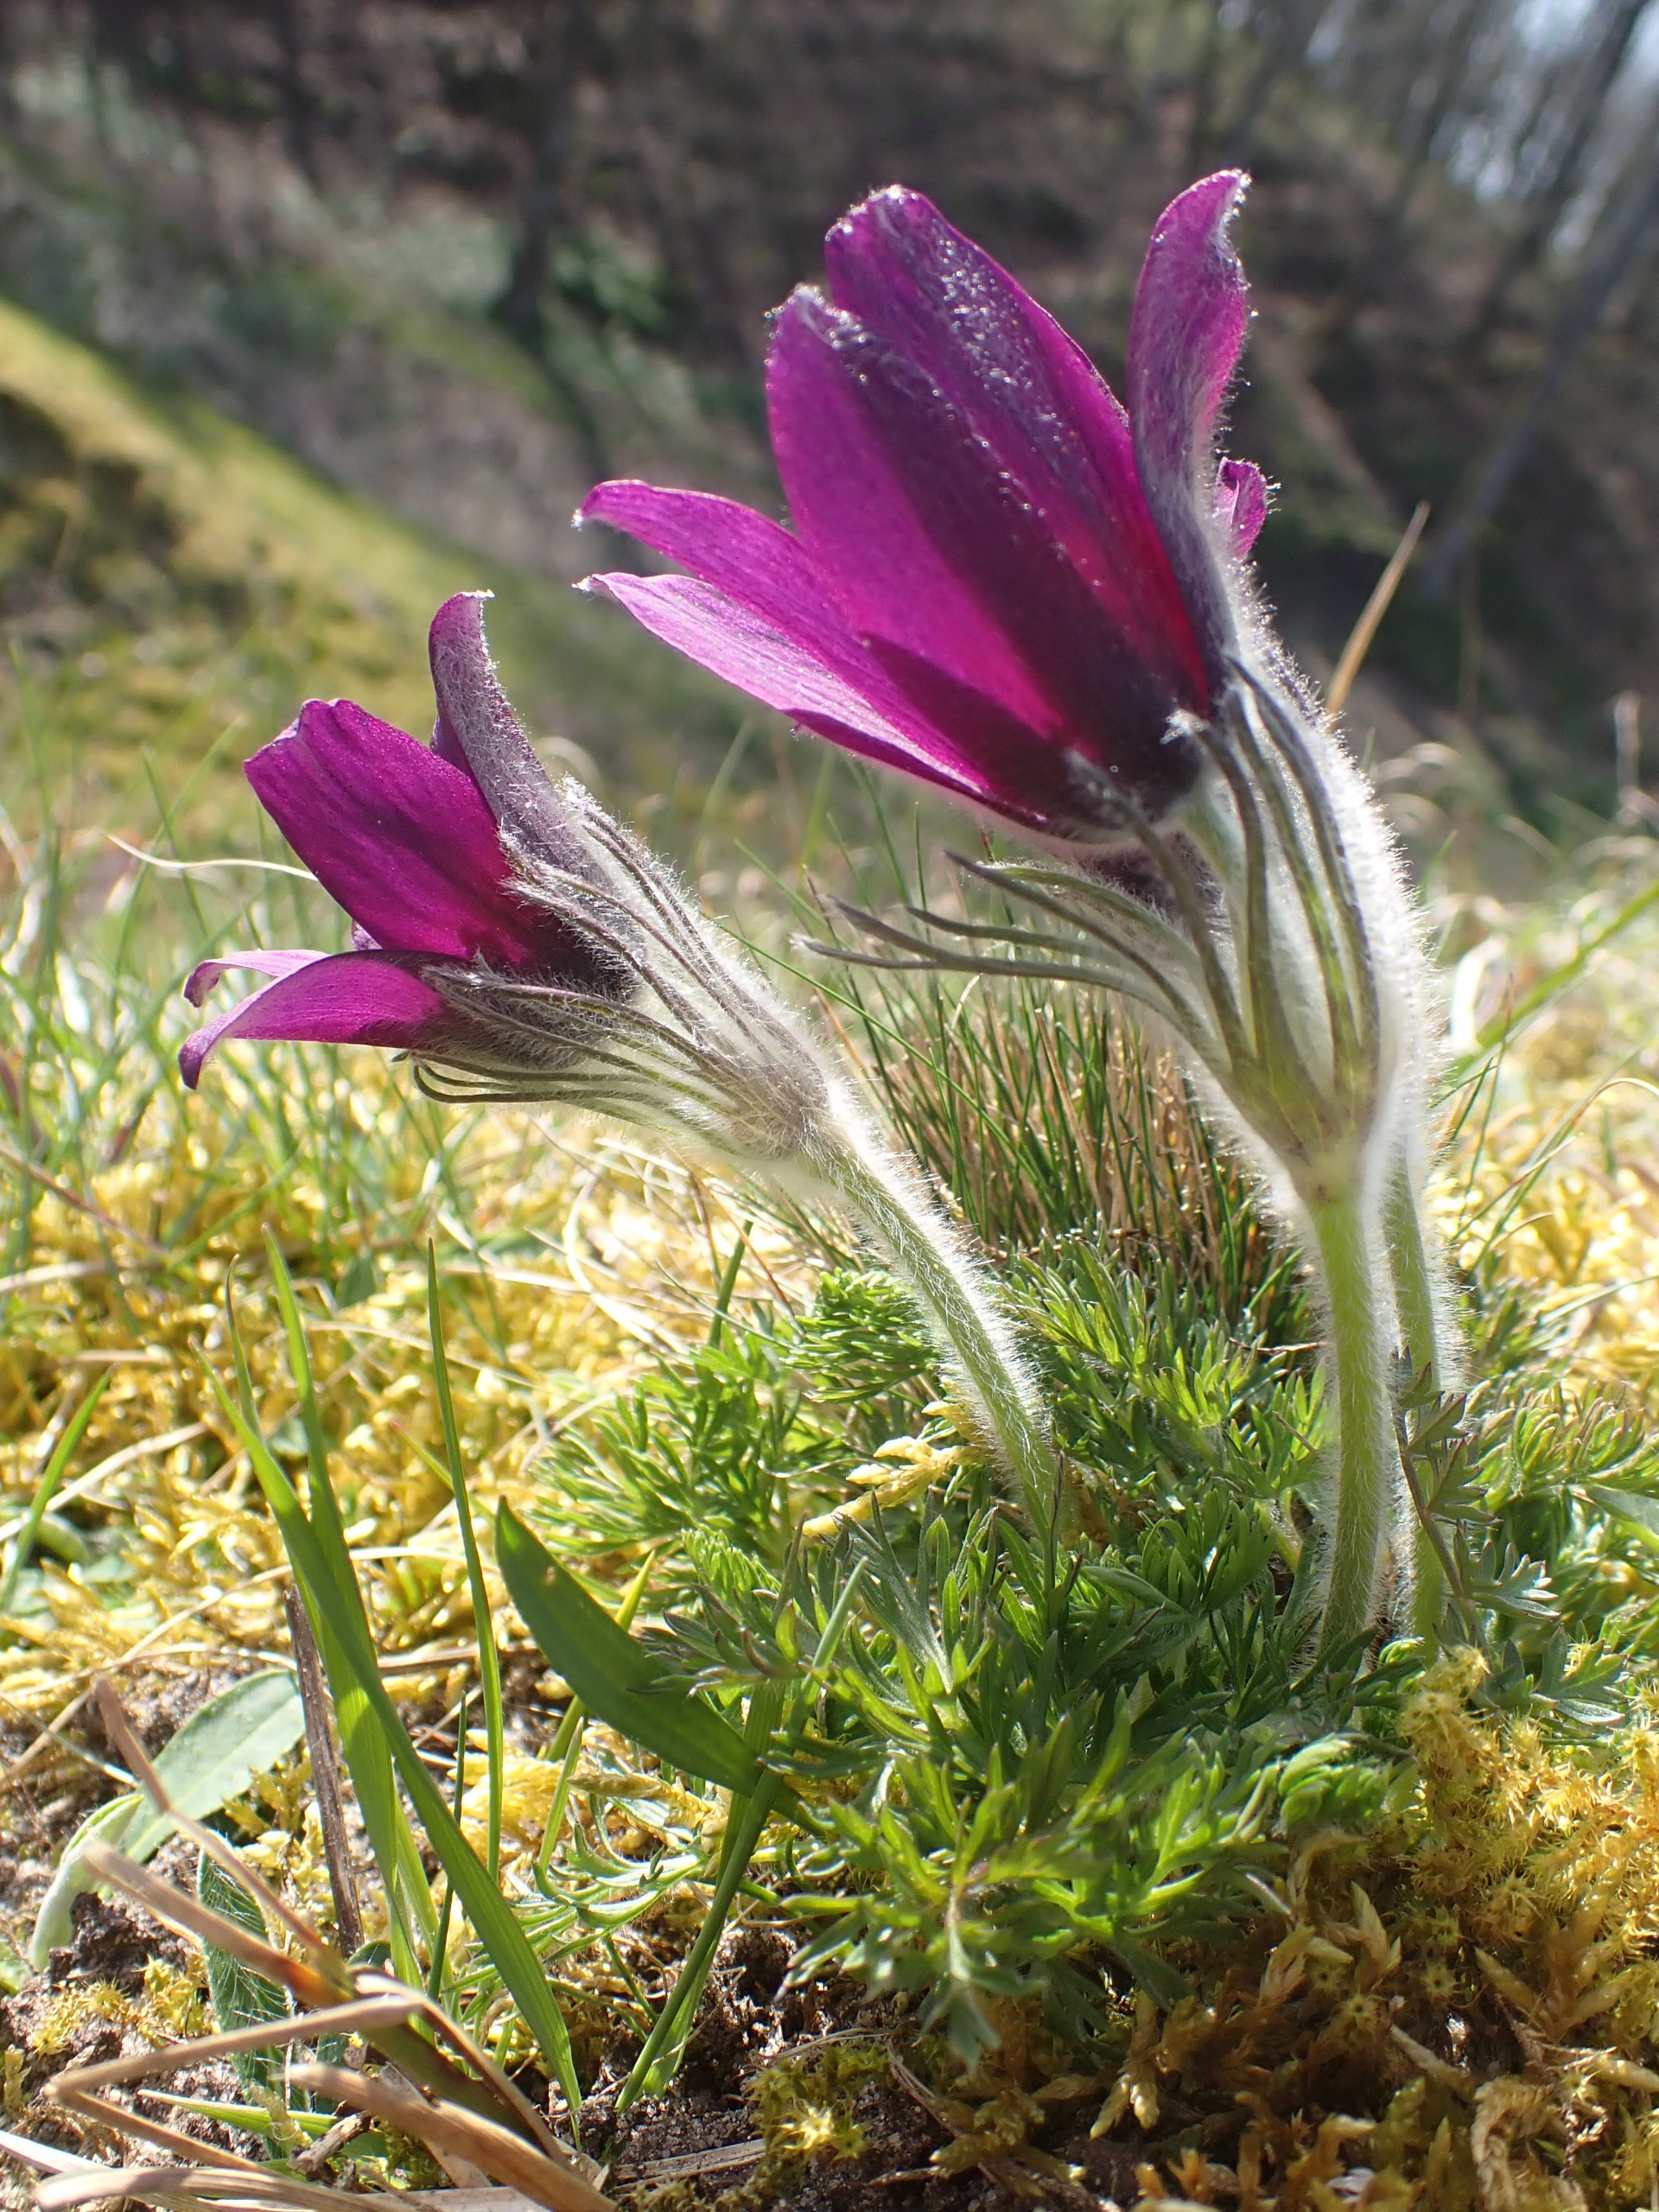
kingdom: Plantae
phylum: Tracheophyta
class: Magnoliopsida
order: Ranunculales
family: Ranunculaceae
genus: Pulsatilla
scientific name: Pulsatilla vulgaris
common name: Opret kobjælde
